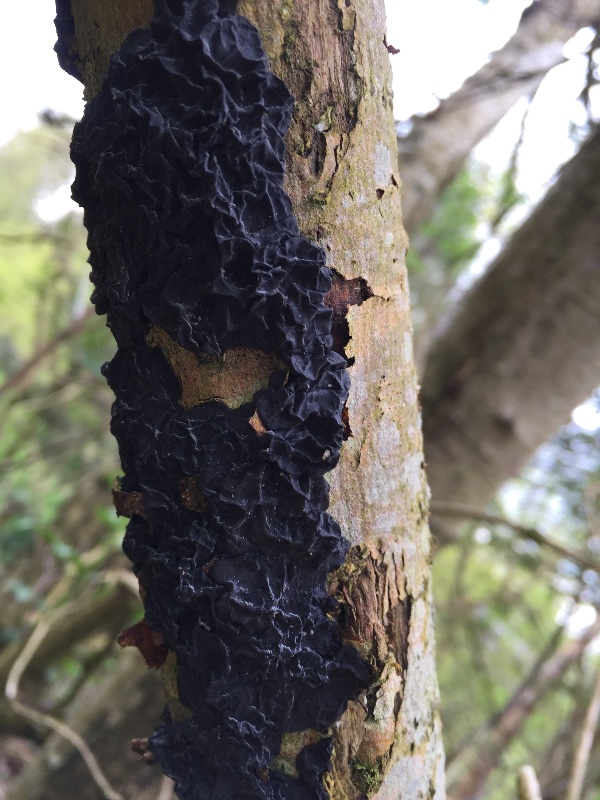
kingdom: Fungi
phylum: Basidiomycota
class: Agaricomycetes
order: Auriculariales
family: Auriculariaceae
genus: Exidia
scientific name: Exidia nigricans
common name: almindelig bævretop
